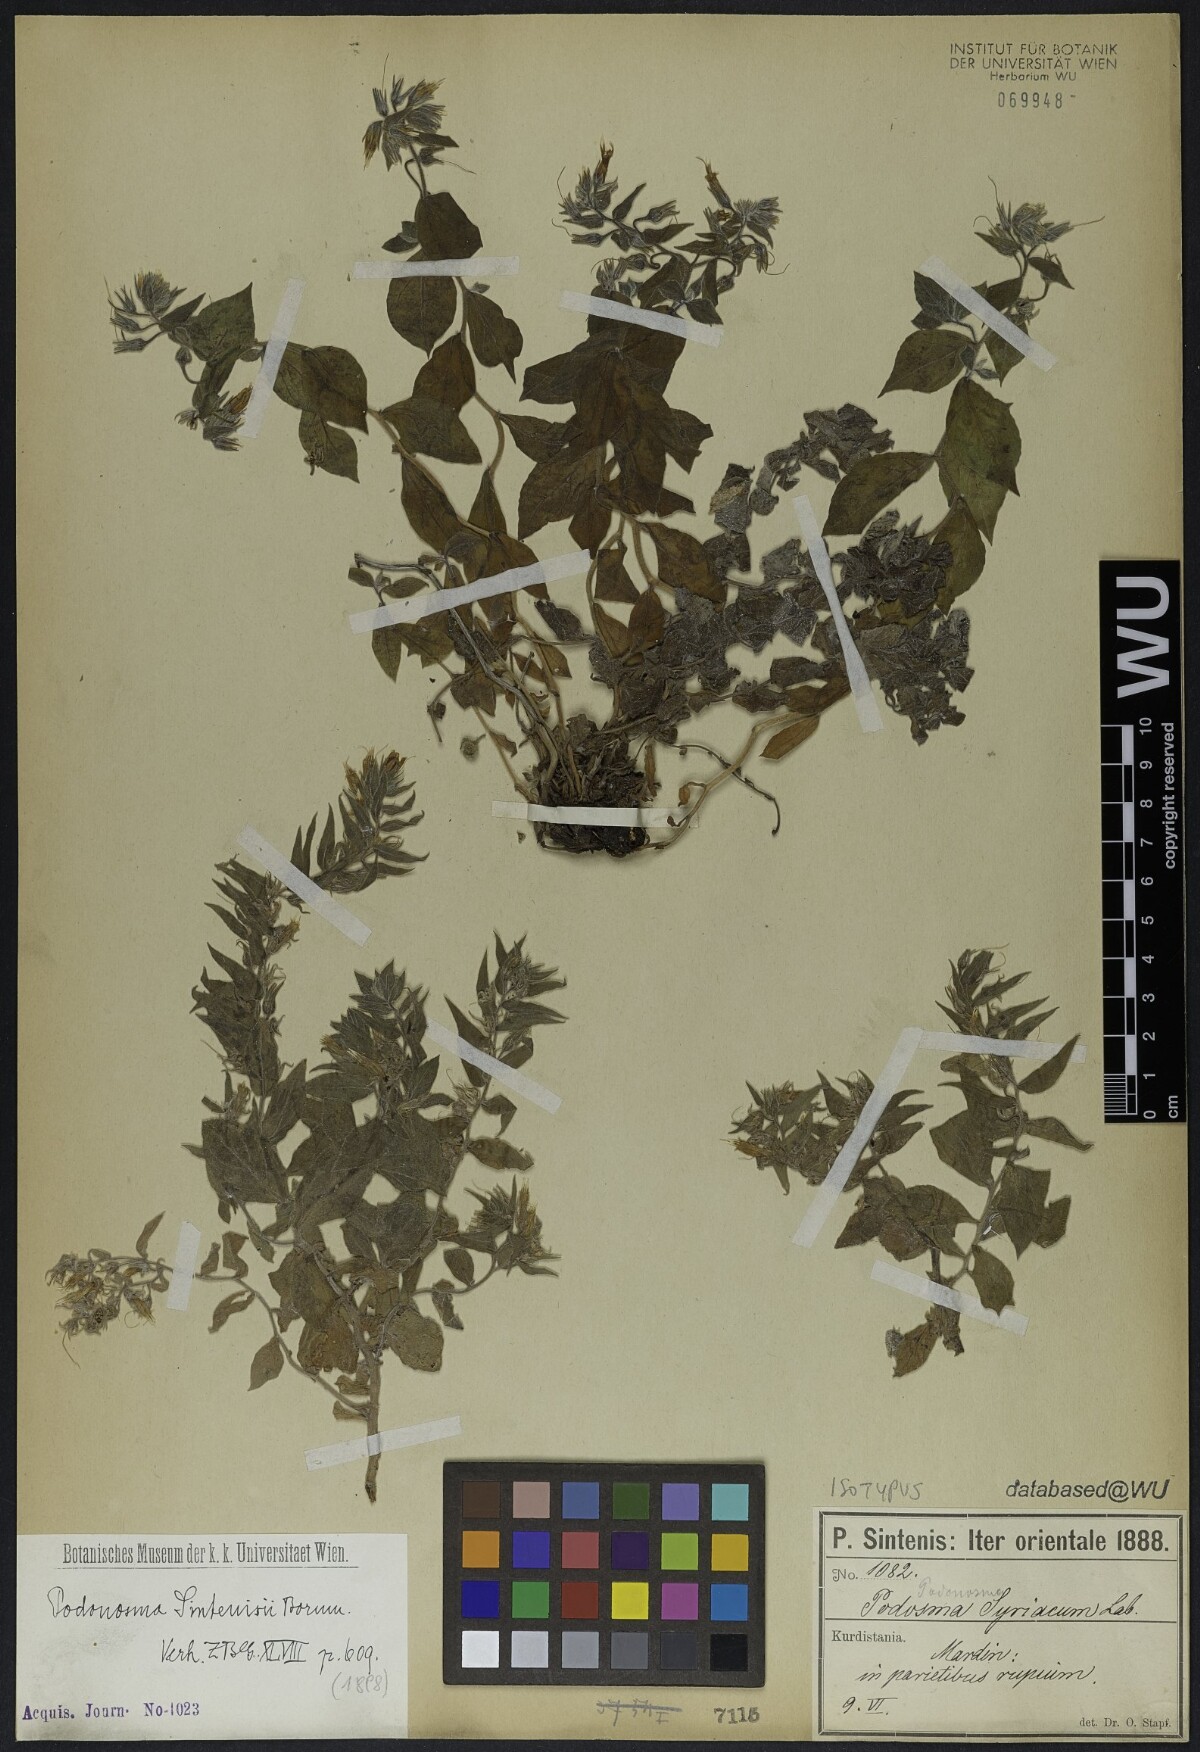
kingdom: Plantae
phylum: Tracheophyta
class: Magnoliopsida
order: Boraginales
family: Boraginaceae
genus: Podonosma
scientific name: Podonosma sintenisii
